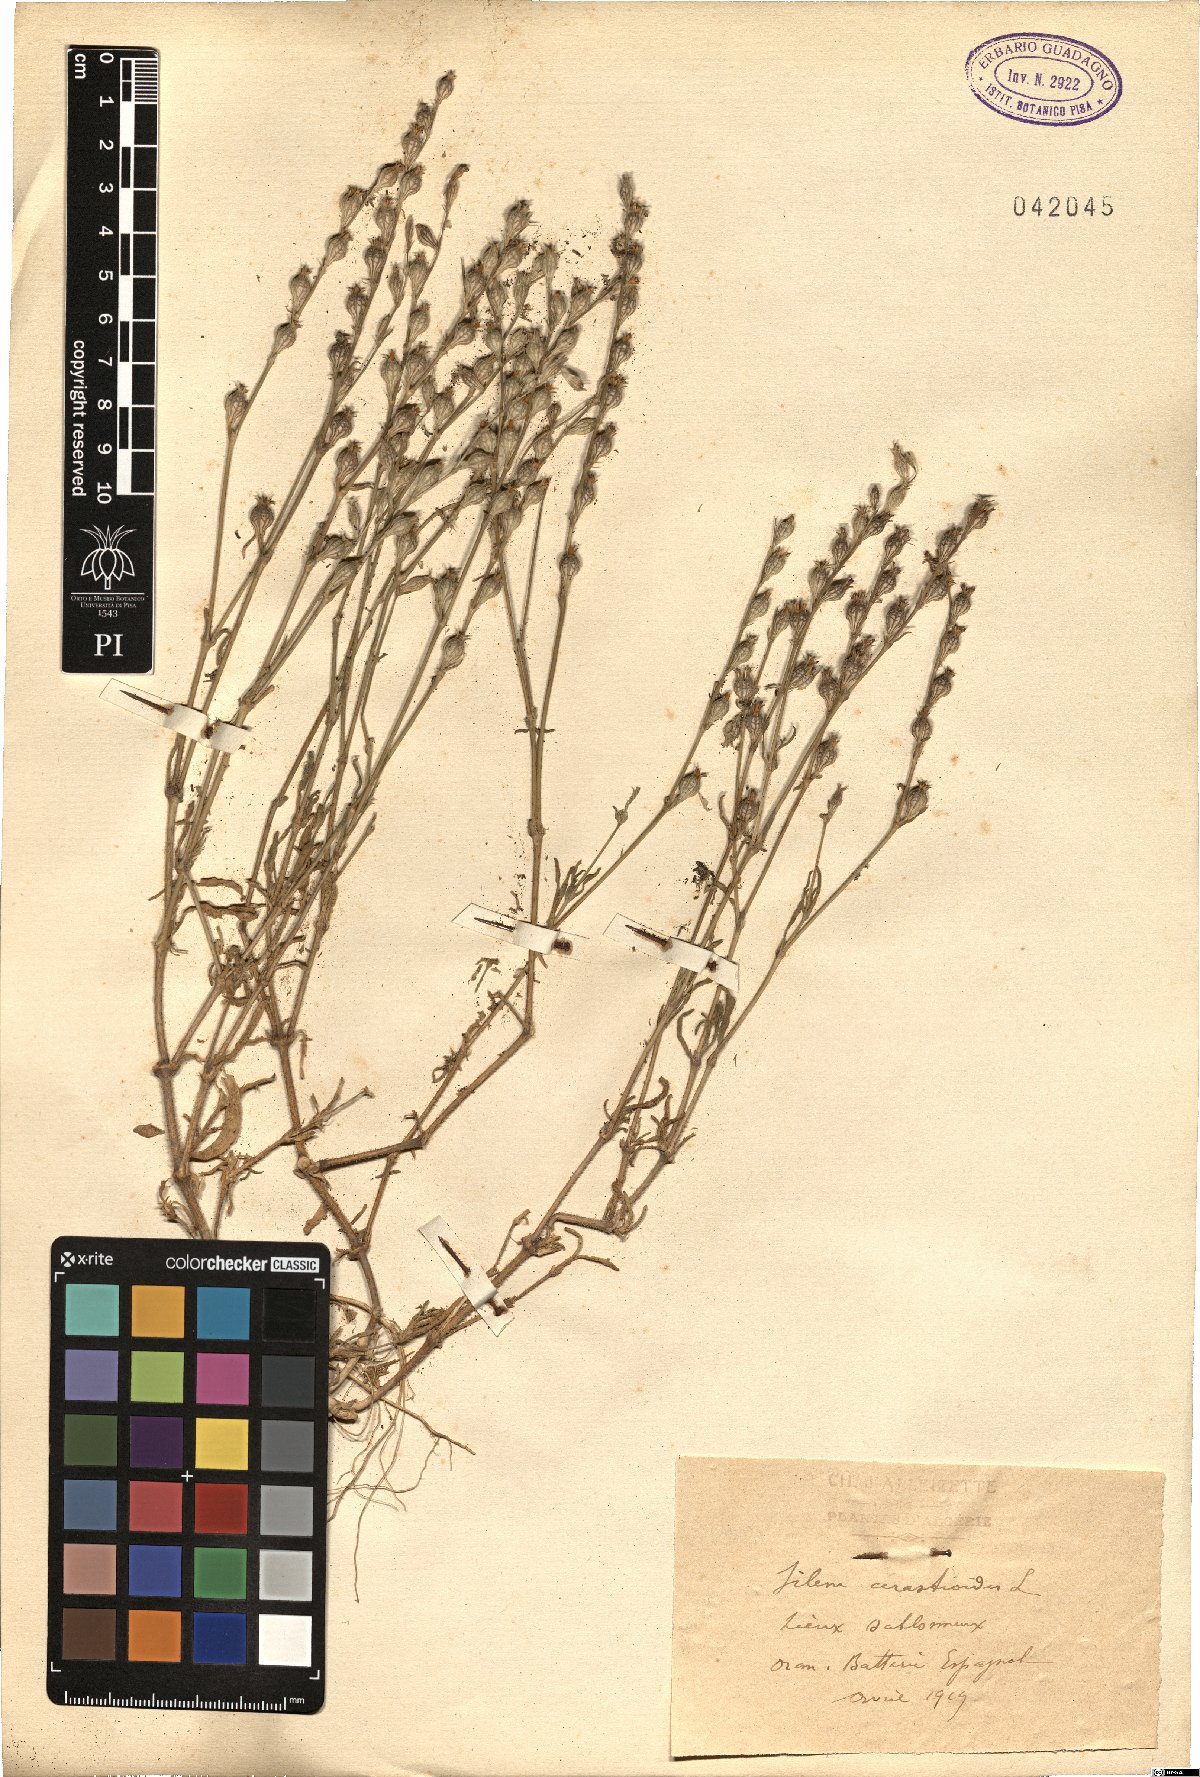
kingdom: Plantae
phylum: Tracheophyta
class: Magnoliopsida
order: Caryophyllales
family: Caryophyllaceae
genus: Silene
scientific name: Silene gallica
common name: Small-flowered catchfly
